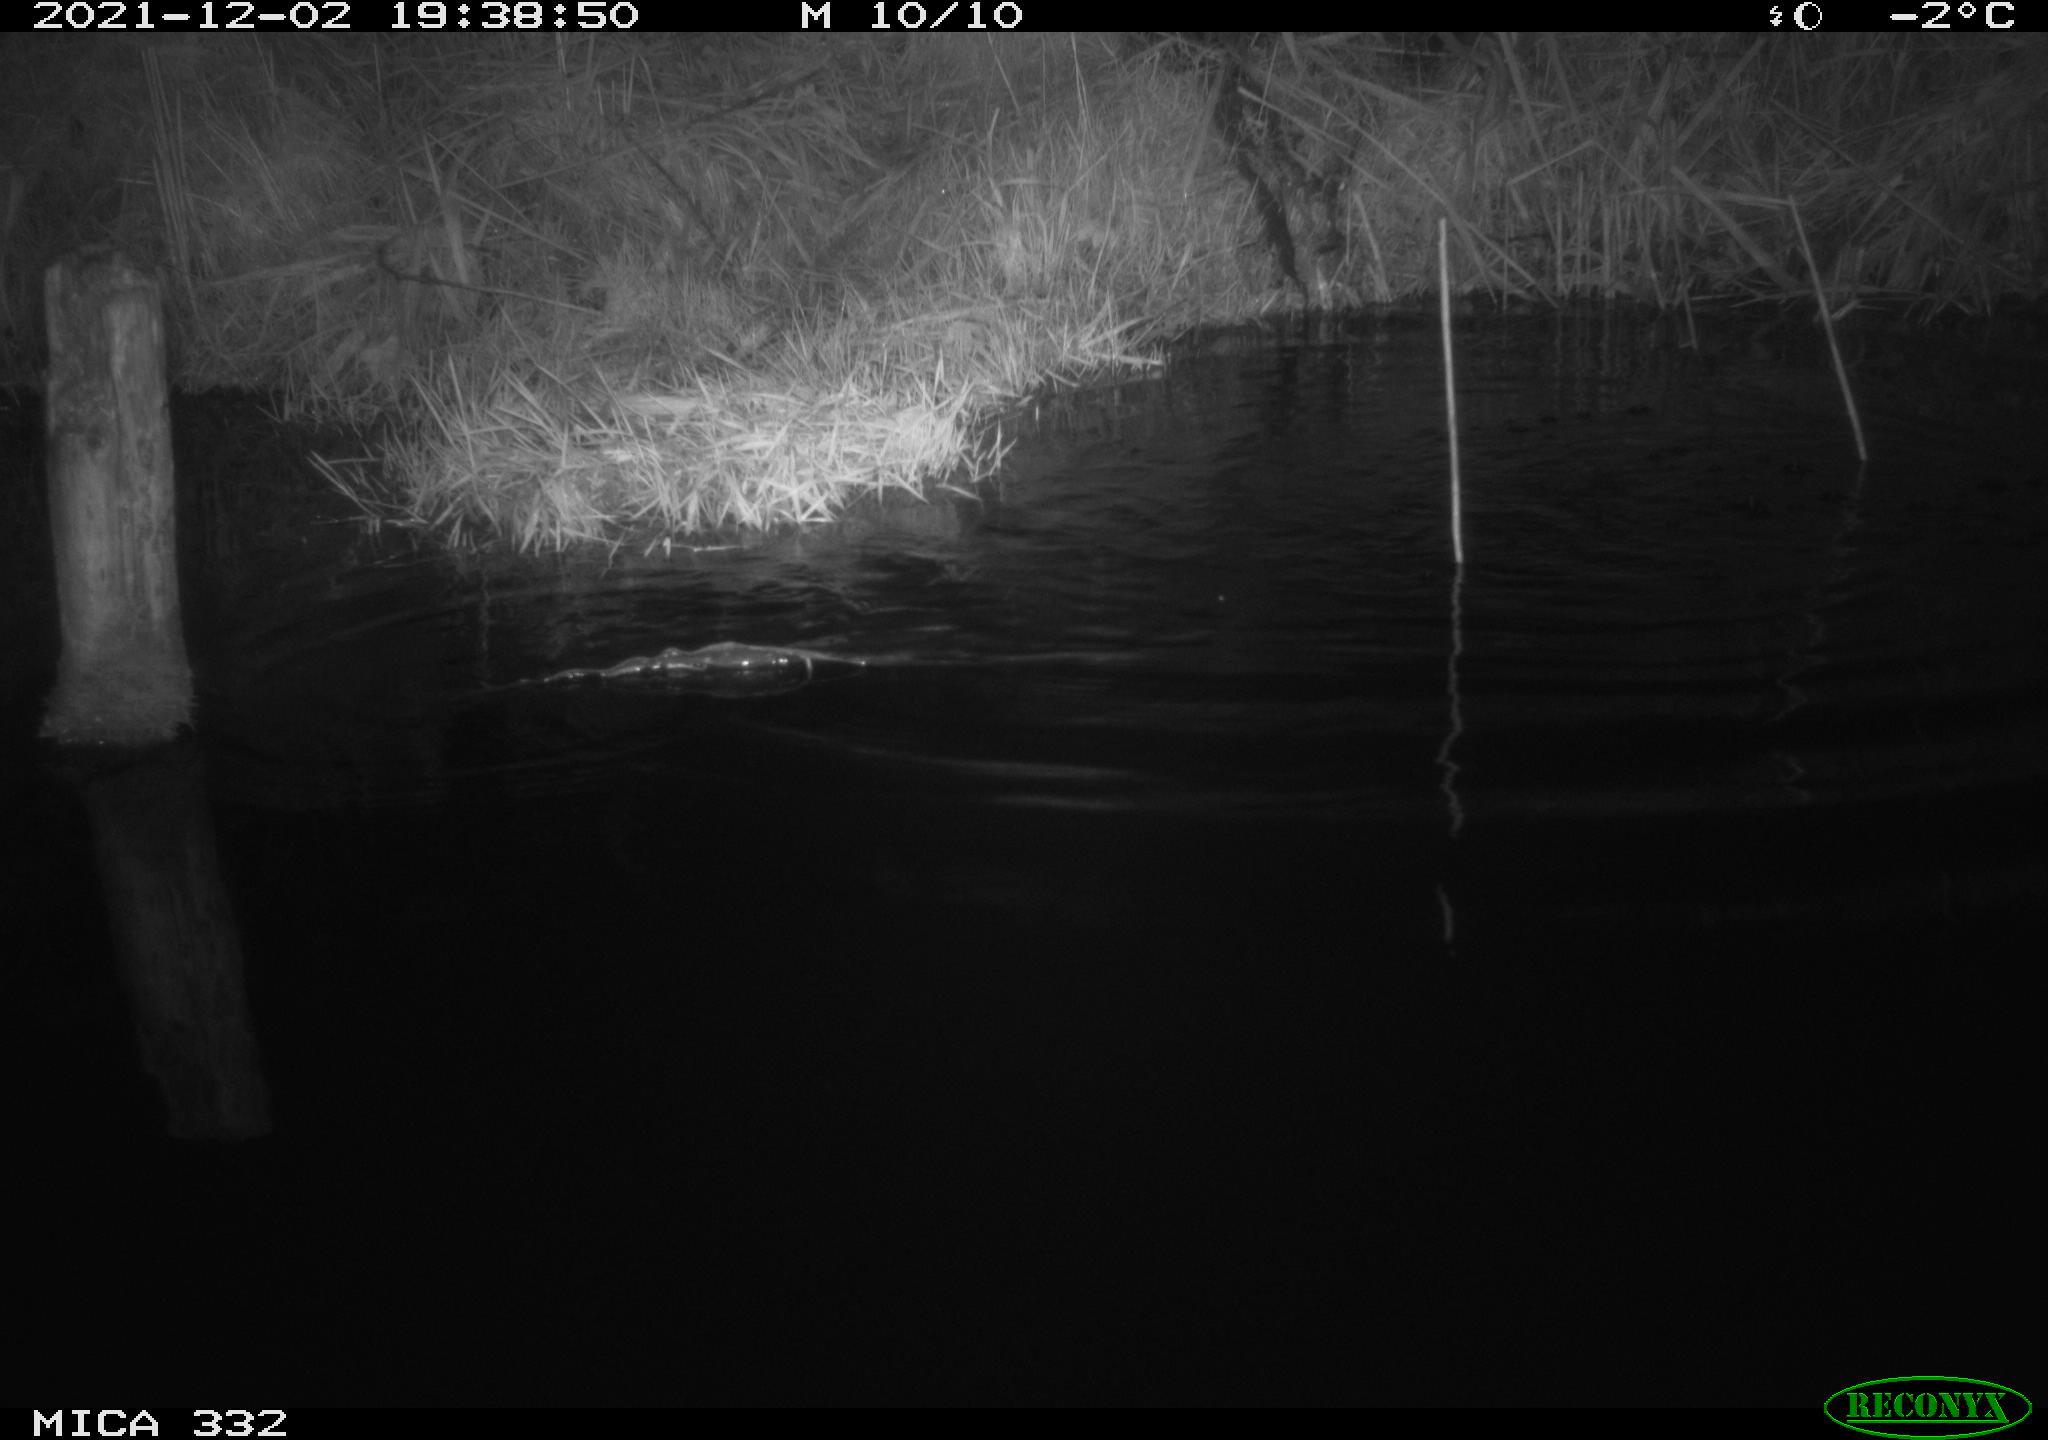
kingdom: Animalia
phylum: Chordata
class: Mammalia
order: Carnivora
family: Mustelidae
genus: Lutra
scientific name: Lutra lutra
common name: European otter
